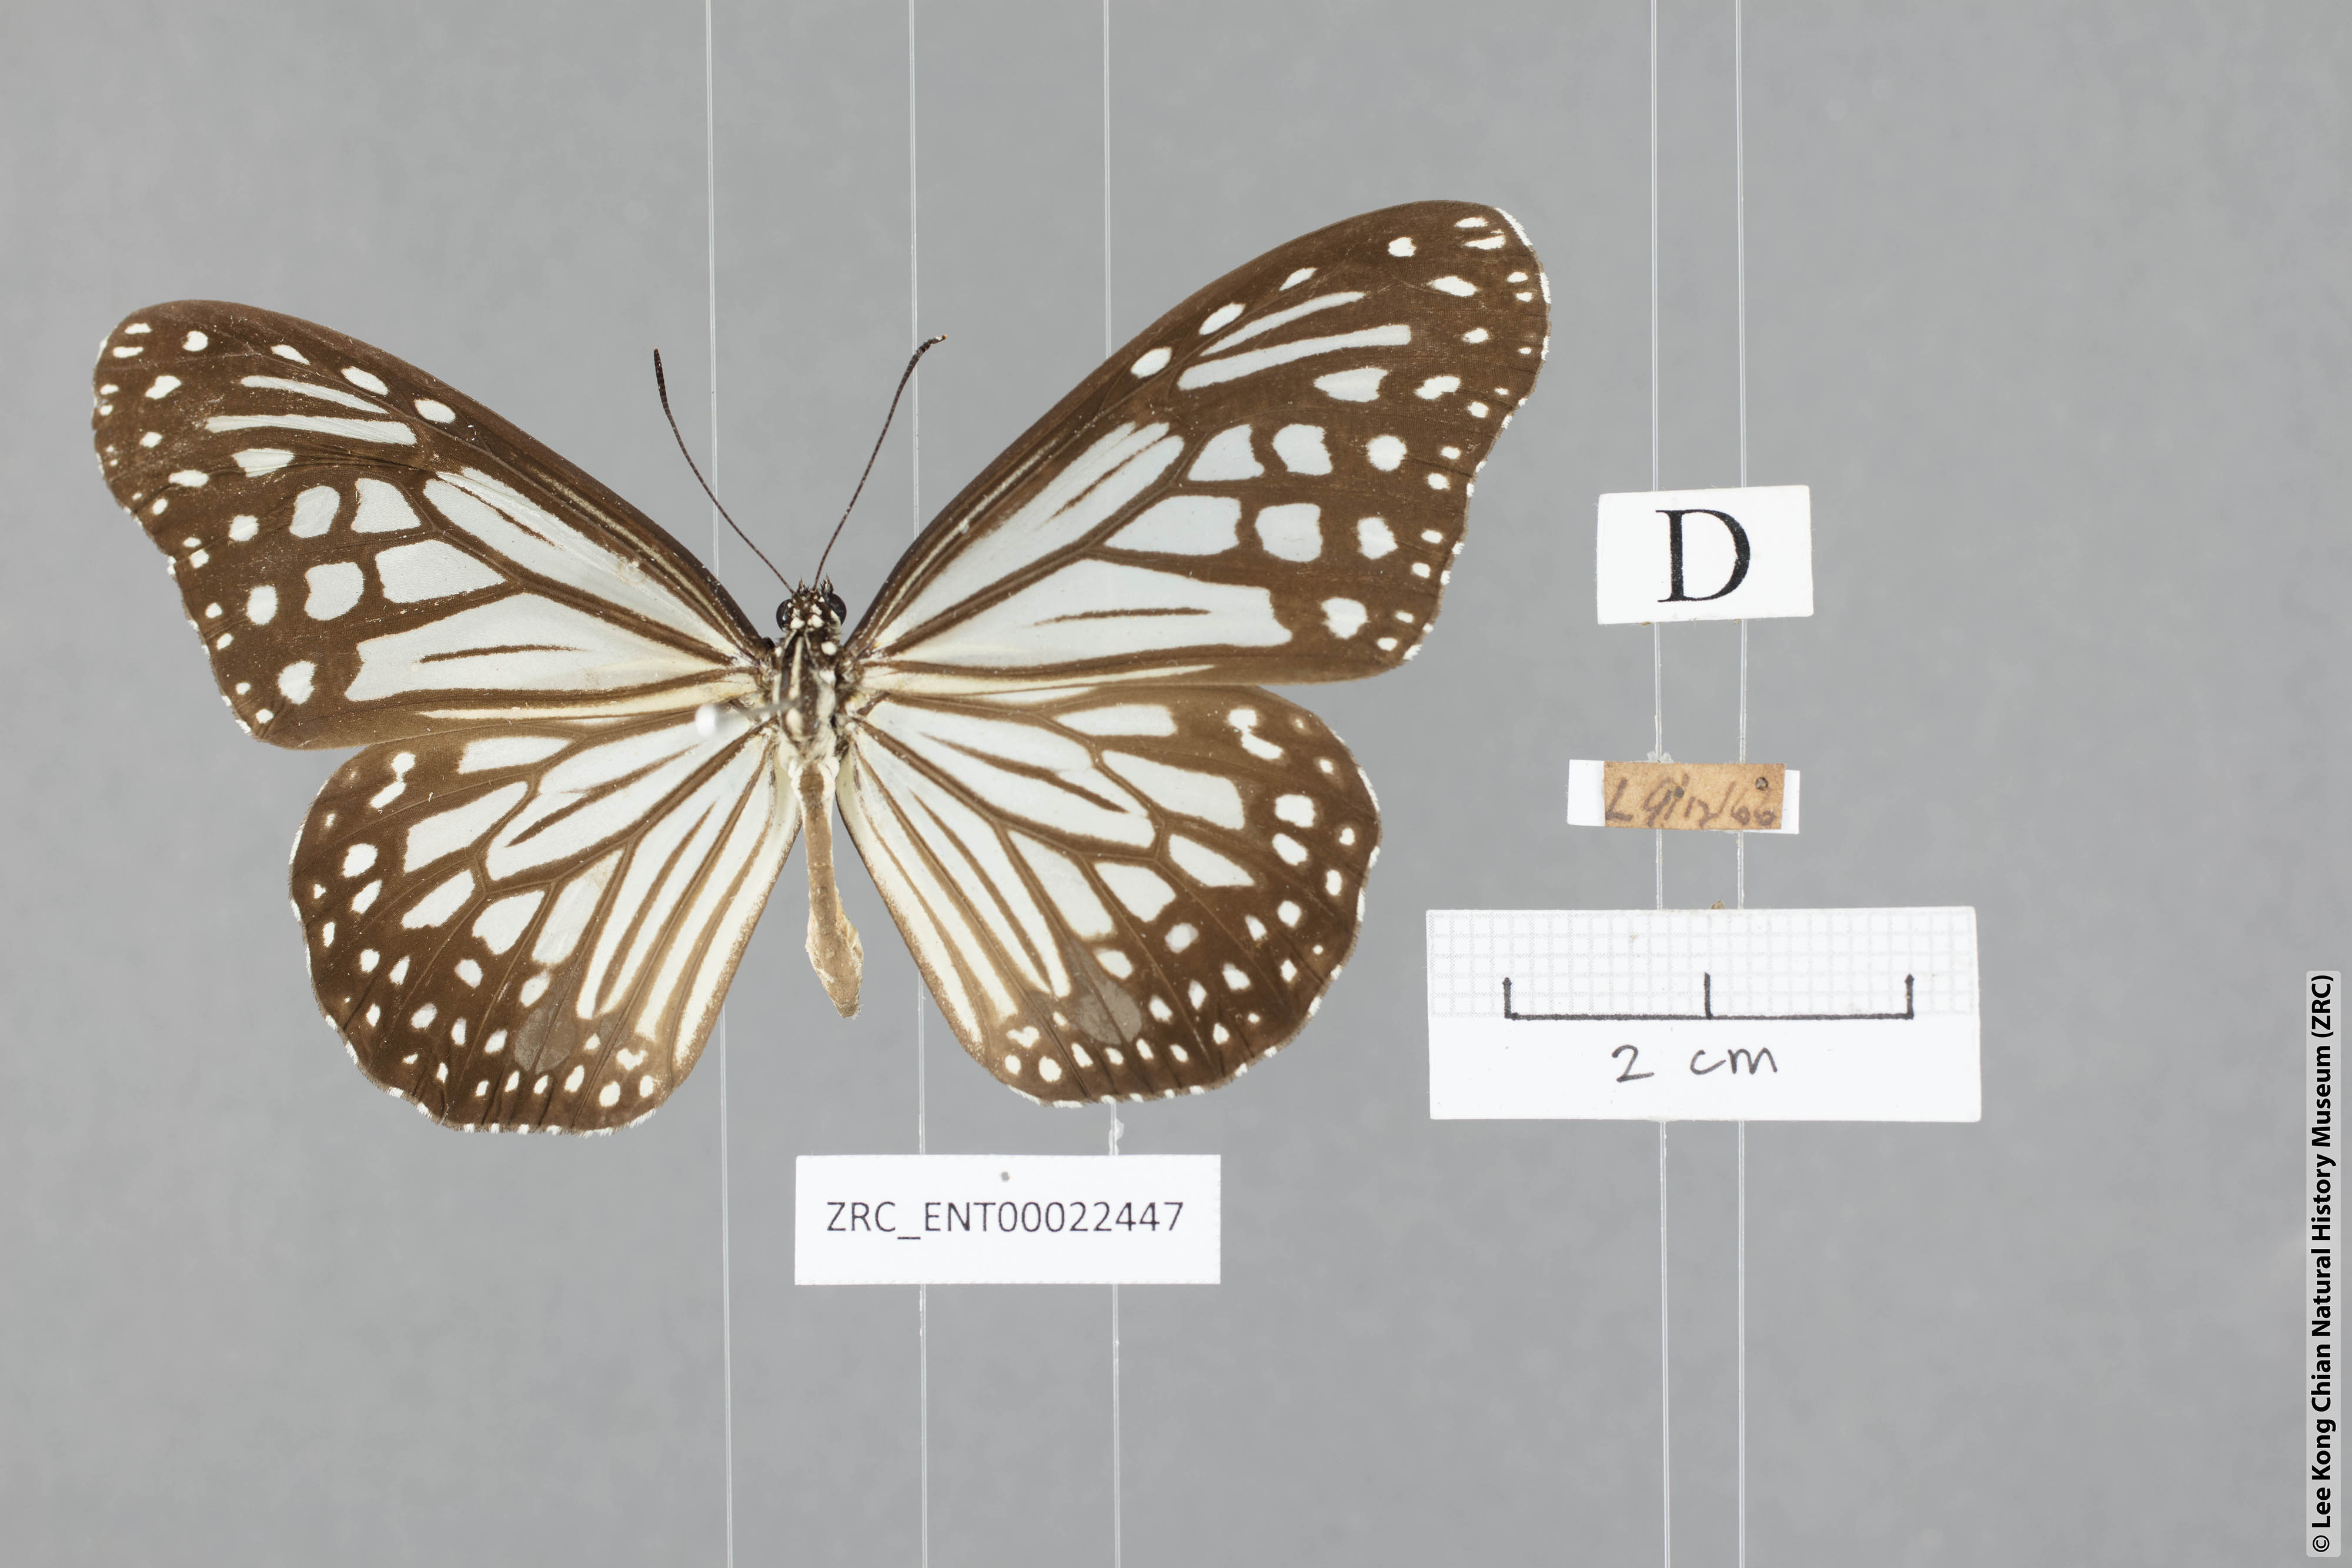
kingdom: Animalia
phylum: Arthropoda
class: Insecta
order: Lepidoptera
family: Nymphalidae
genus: Parantica
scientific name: Parantica aglea
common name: Glassy tiger
